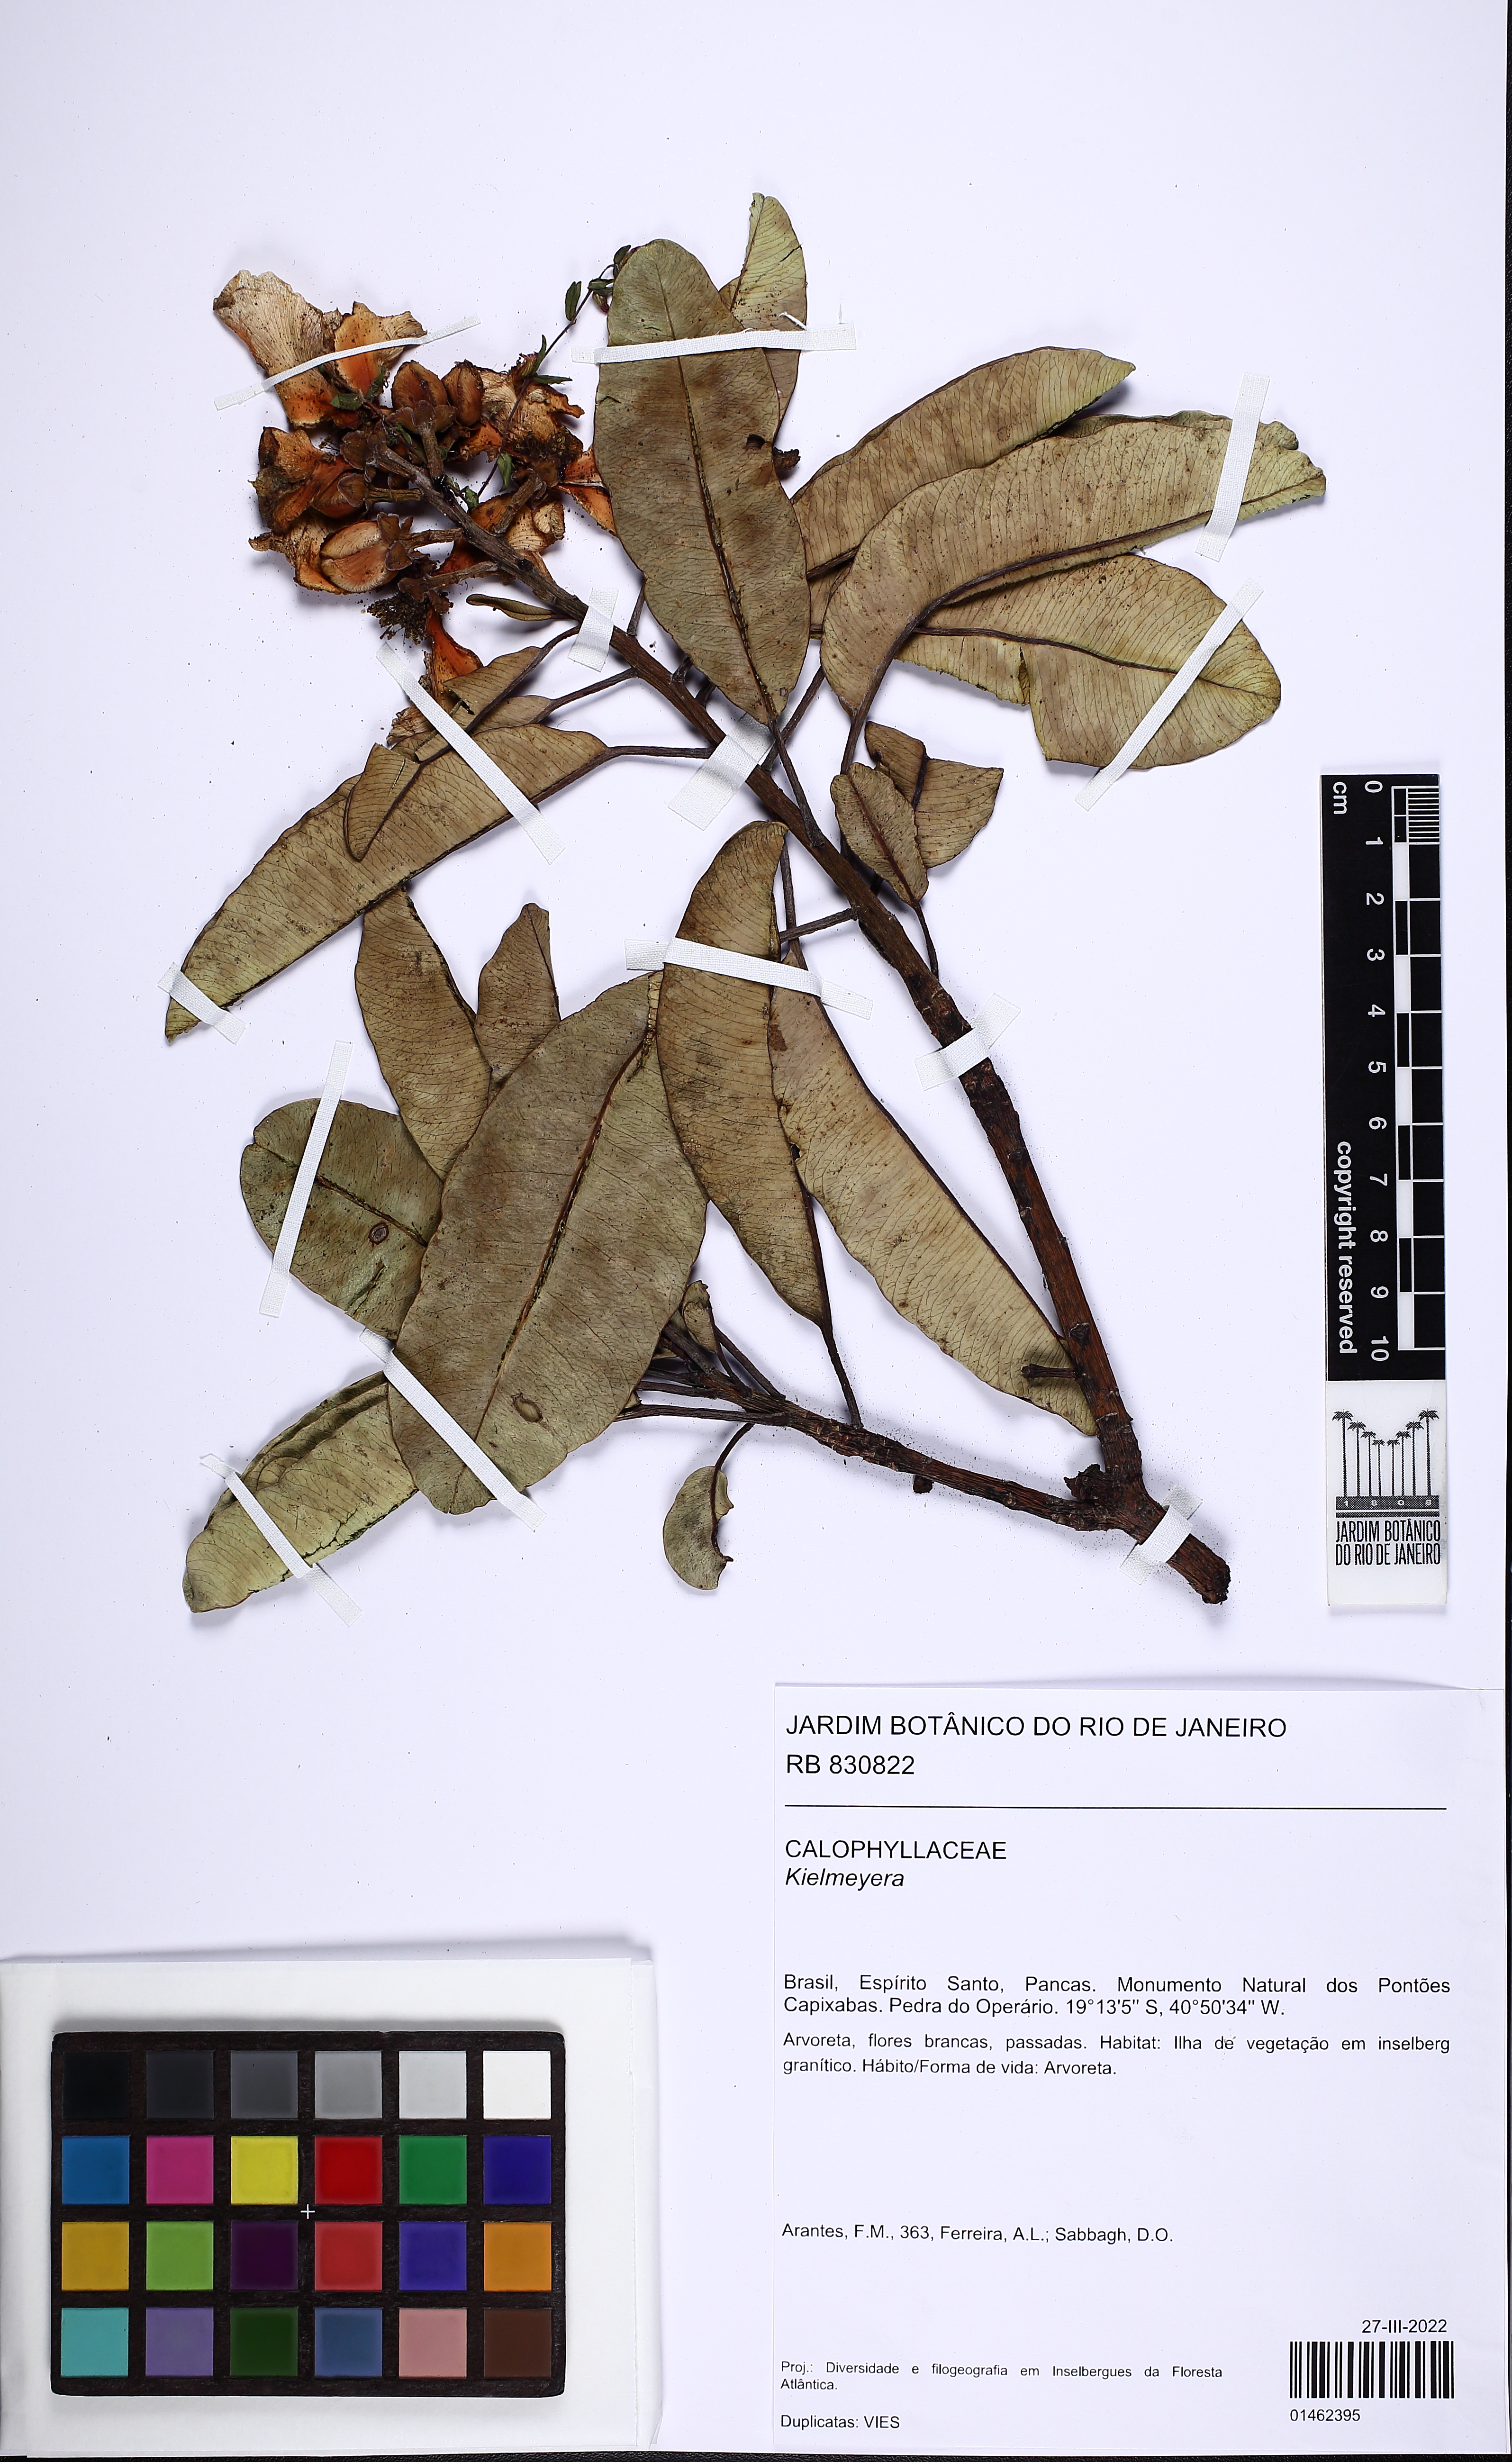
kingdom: Plantae
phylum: Tracheophyta
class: Magnoliopsida
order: Malpighiales
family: Calophyllaceae
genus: Kielmeyera
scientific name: Kielmeyera
